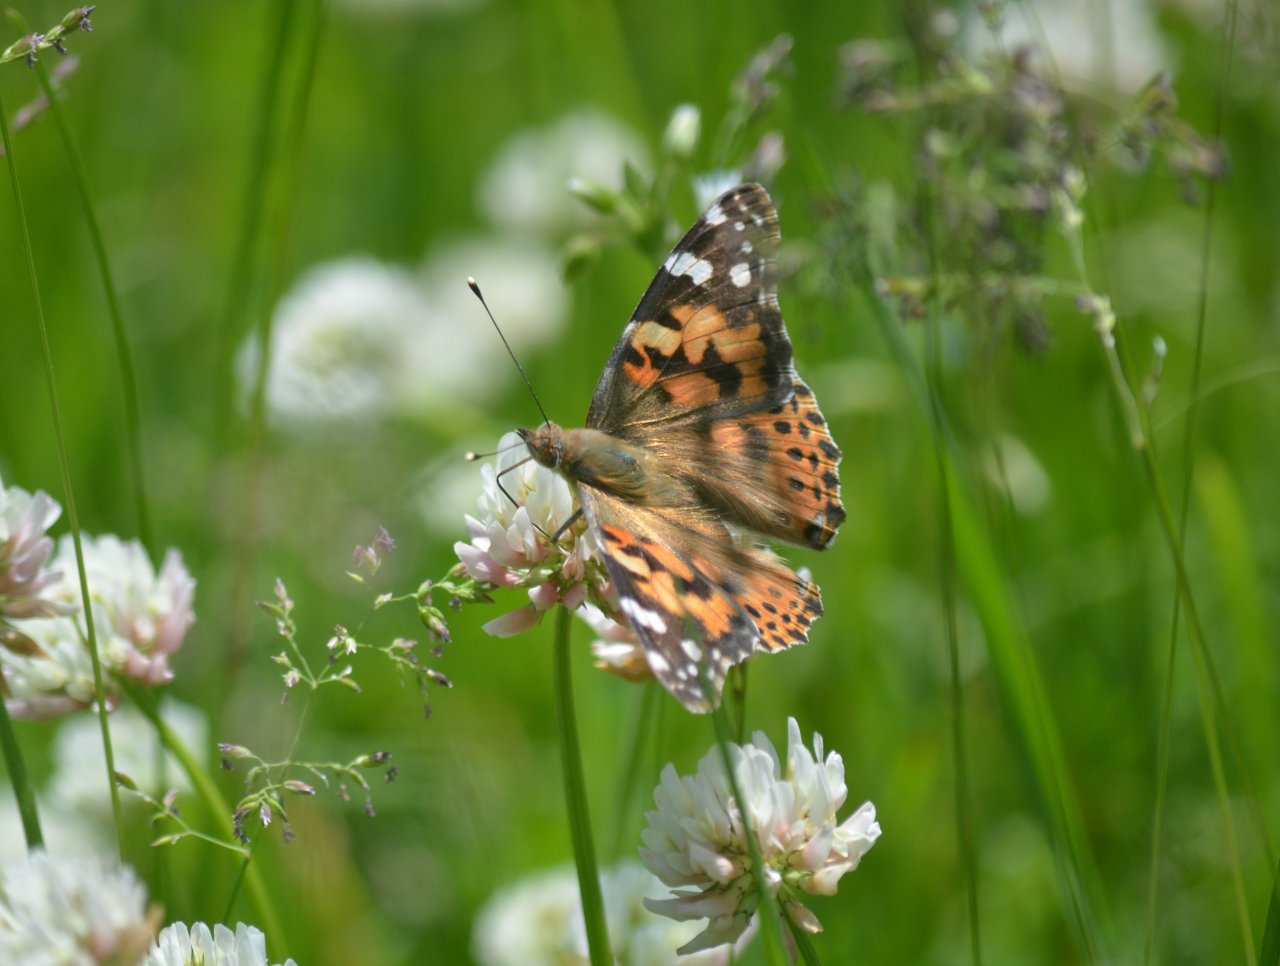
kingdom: Animalia
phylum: Arthropoda
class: Insecta
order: Lepidoptera
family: Nymphalidae
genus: Vanessa
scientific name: Vanessa cardui
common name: Painted Lady
